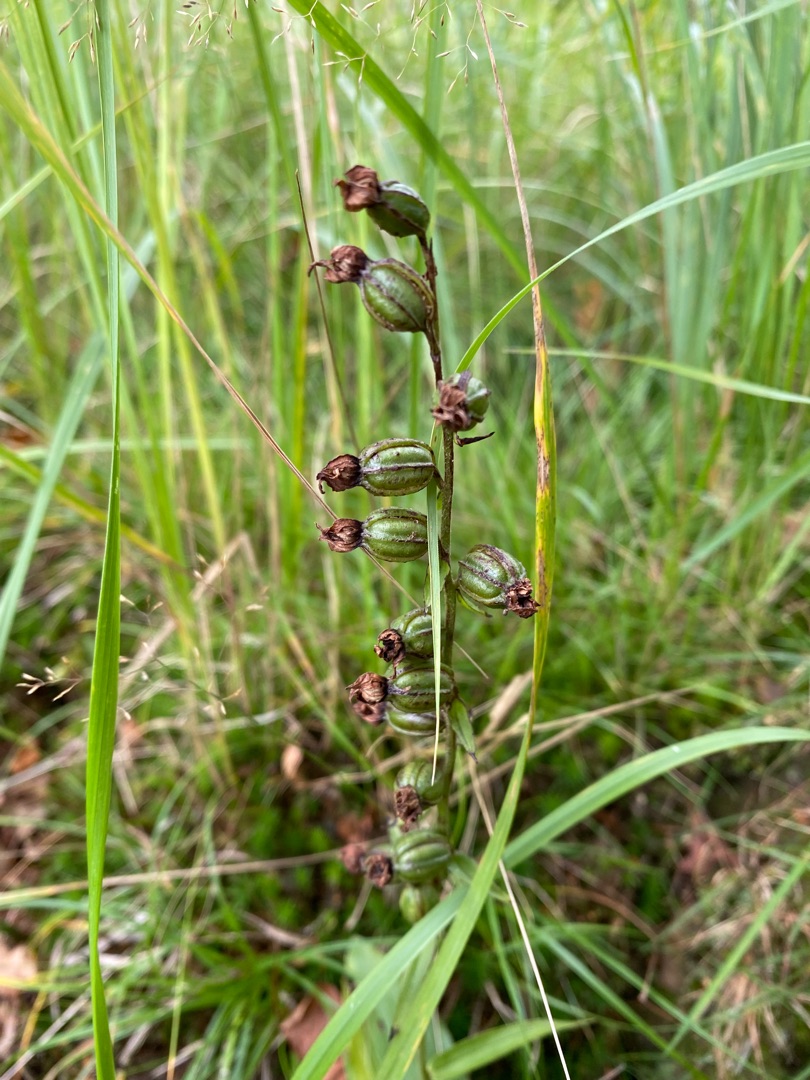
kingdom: Plantae
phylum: Tracheophyta
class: Liliopsida
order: Asparagales
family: Orchidaceae
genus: Epipactis
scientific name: Epipactis helleborine
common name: Skov-hullæbe
